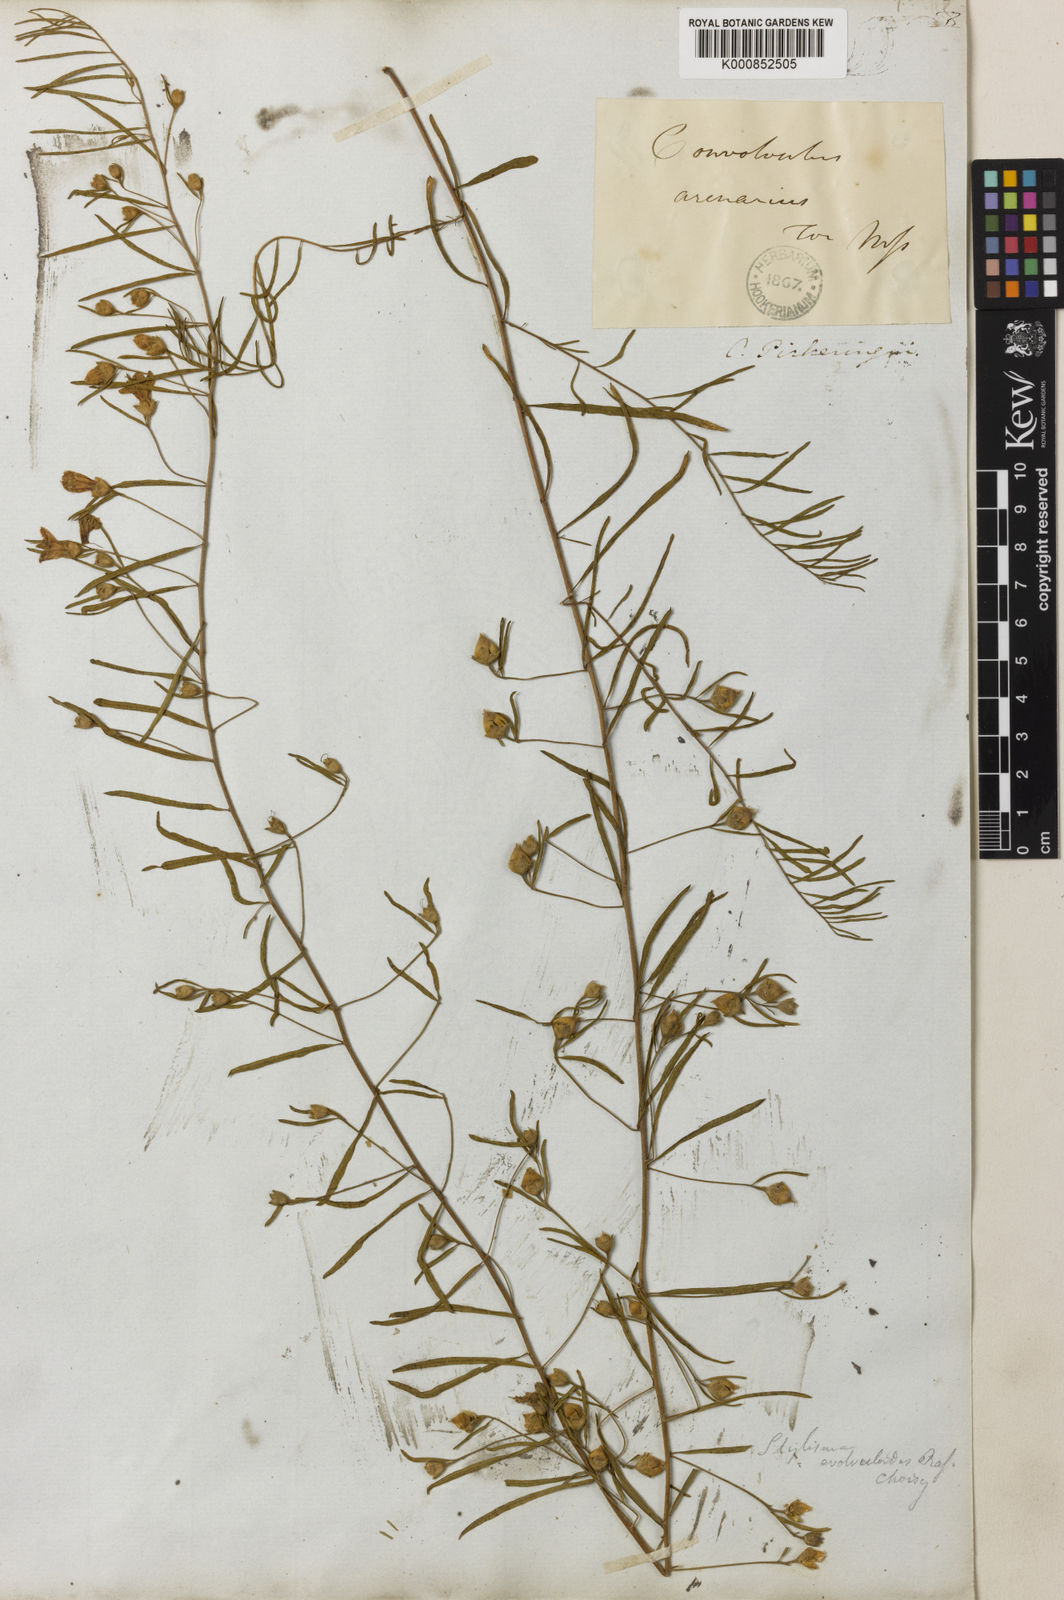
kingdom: Plantae
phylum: Tracheophyta
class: Magnoliopsida
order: Solanales
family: Convolvulaceae
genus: Stylisma
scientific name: Stylisma pickeringii
